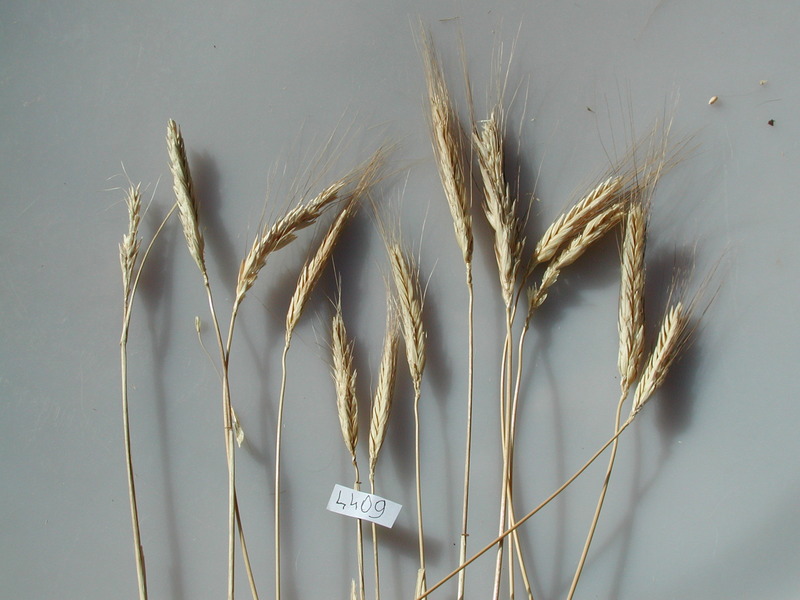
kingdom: Plantae
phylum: Tracheophyta
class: Liliopsida
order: Poales
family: Poaceae
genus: Triticum
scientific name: Triticum turgidum
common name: Wheat
